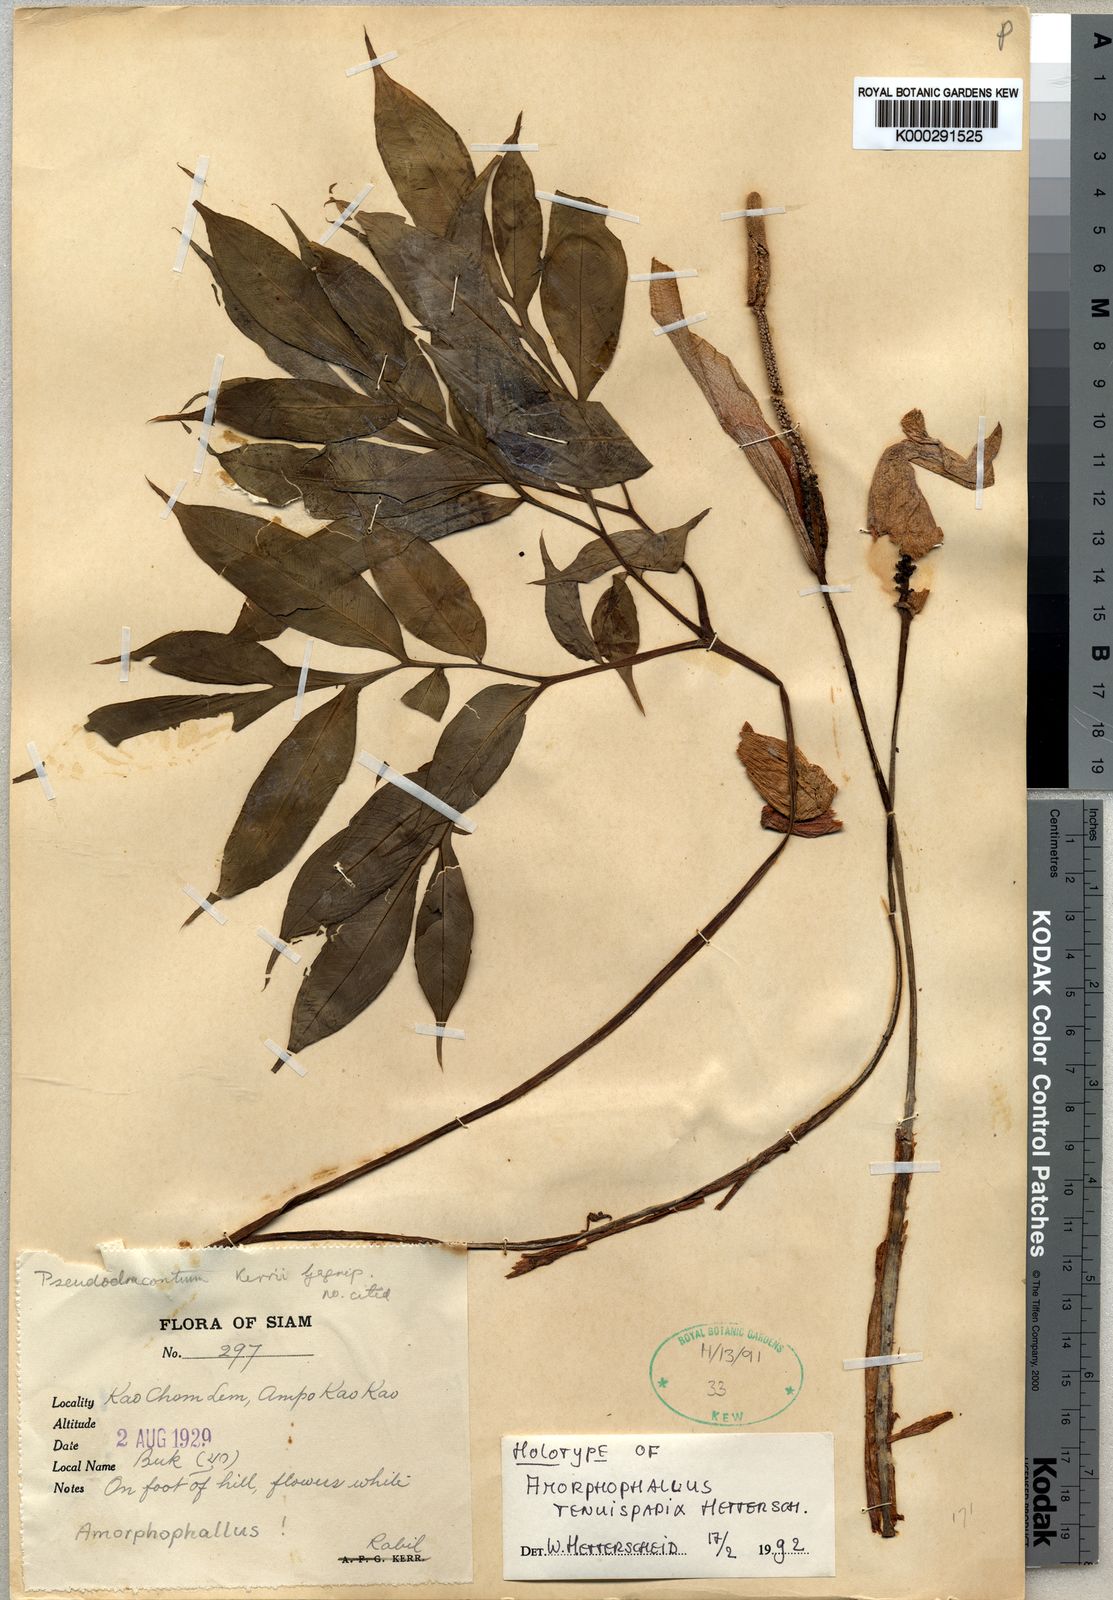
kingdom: Plantae
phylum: Tracheophyta
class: Liliopsida
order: Alismatales
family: Araceae
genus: Amorphophallus
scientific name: Amorphophallus tenuispadix
